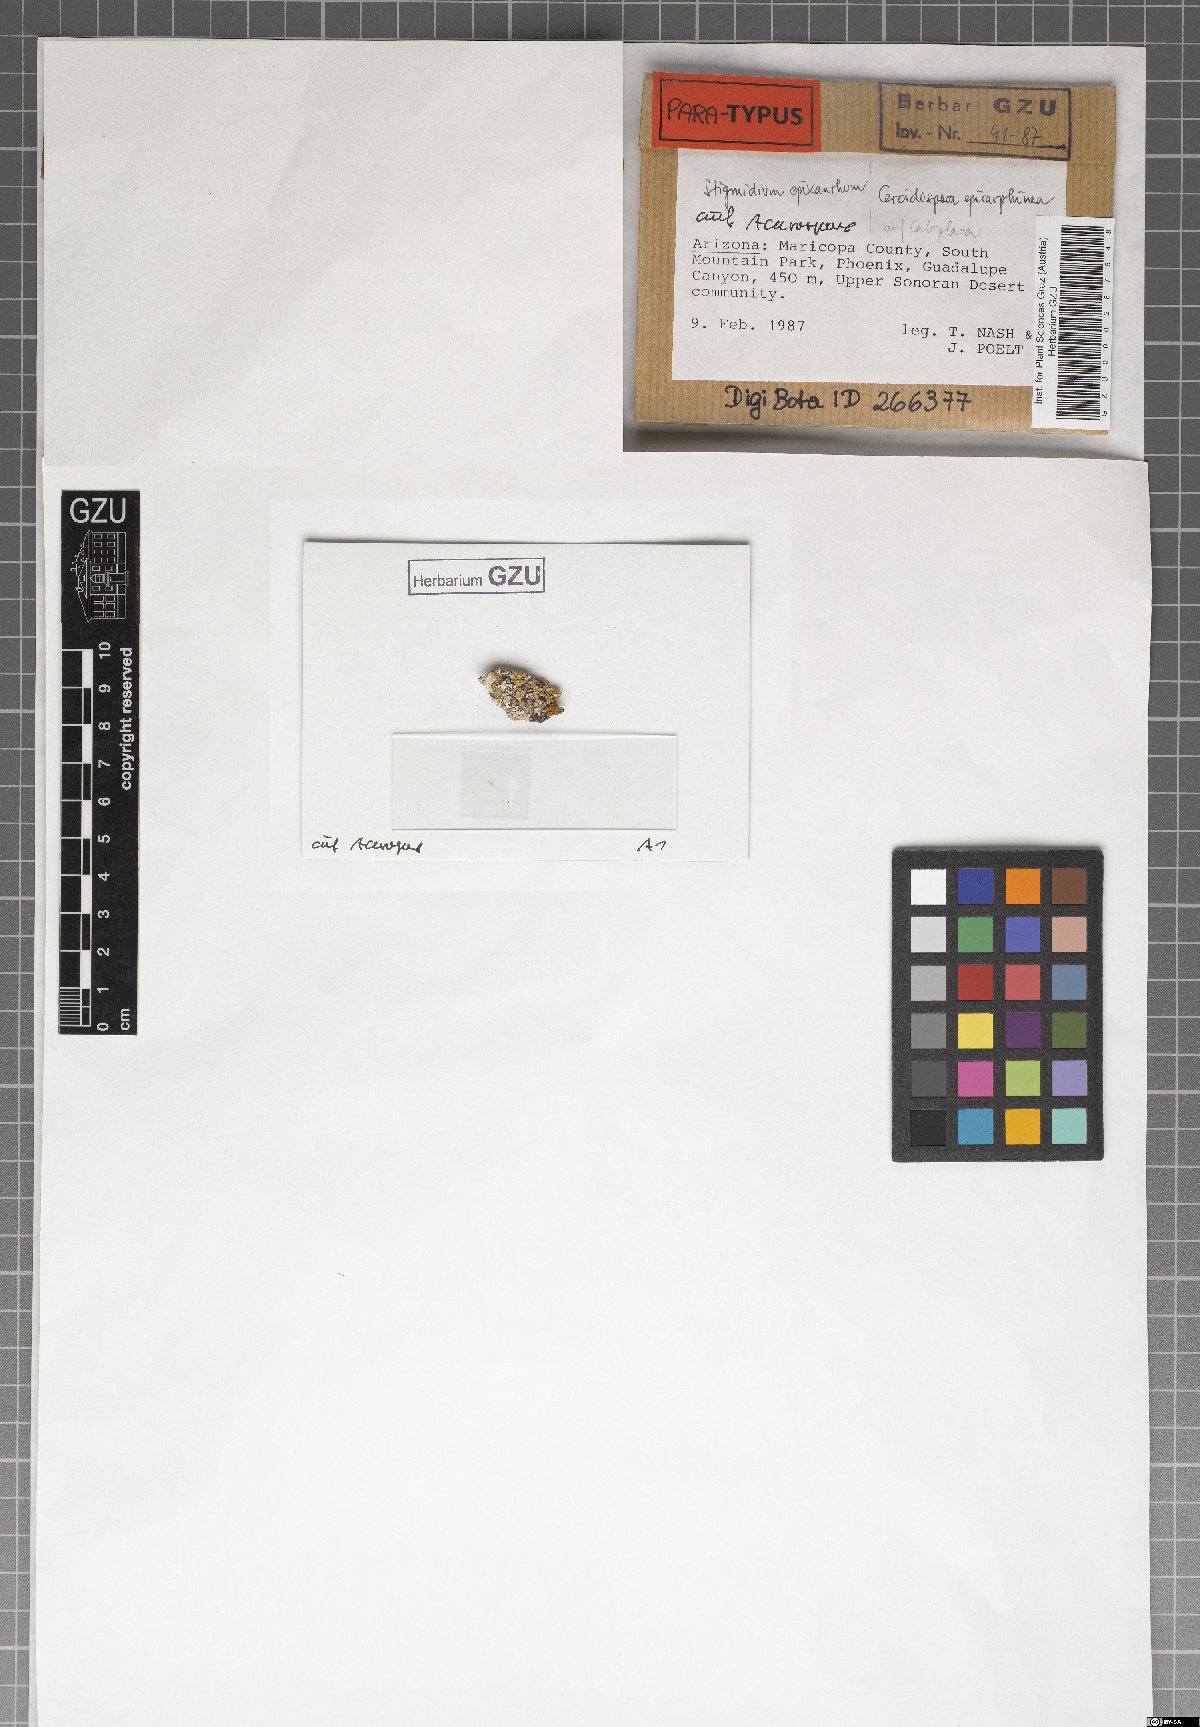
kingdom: Fungi
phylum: Ascomycota
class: Dothideomycetes
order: Mycosphaerellales
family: Mycosphaerellaceae
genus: Stigmidium
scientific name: Stigmidium epixanthum
